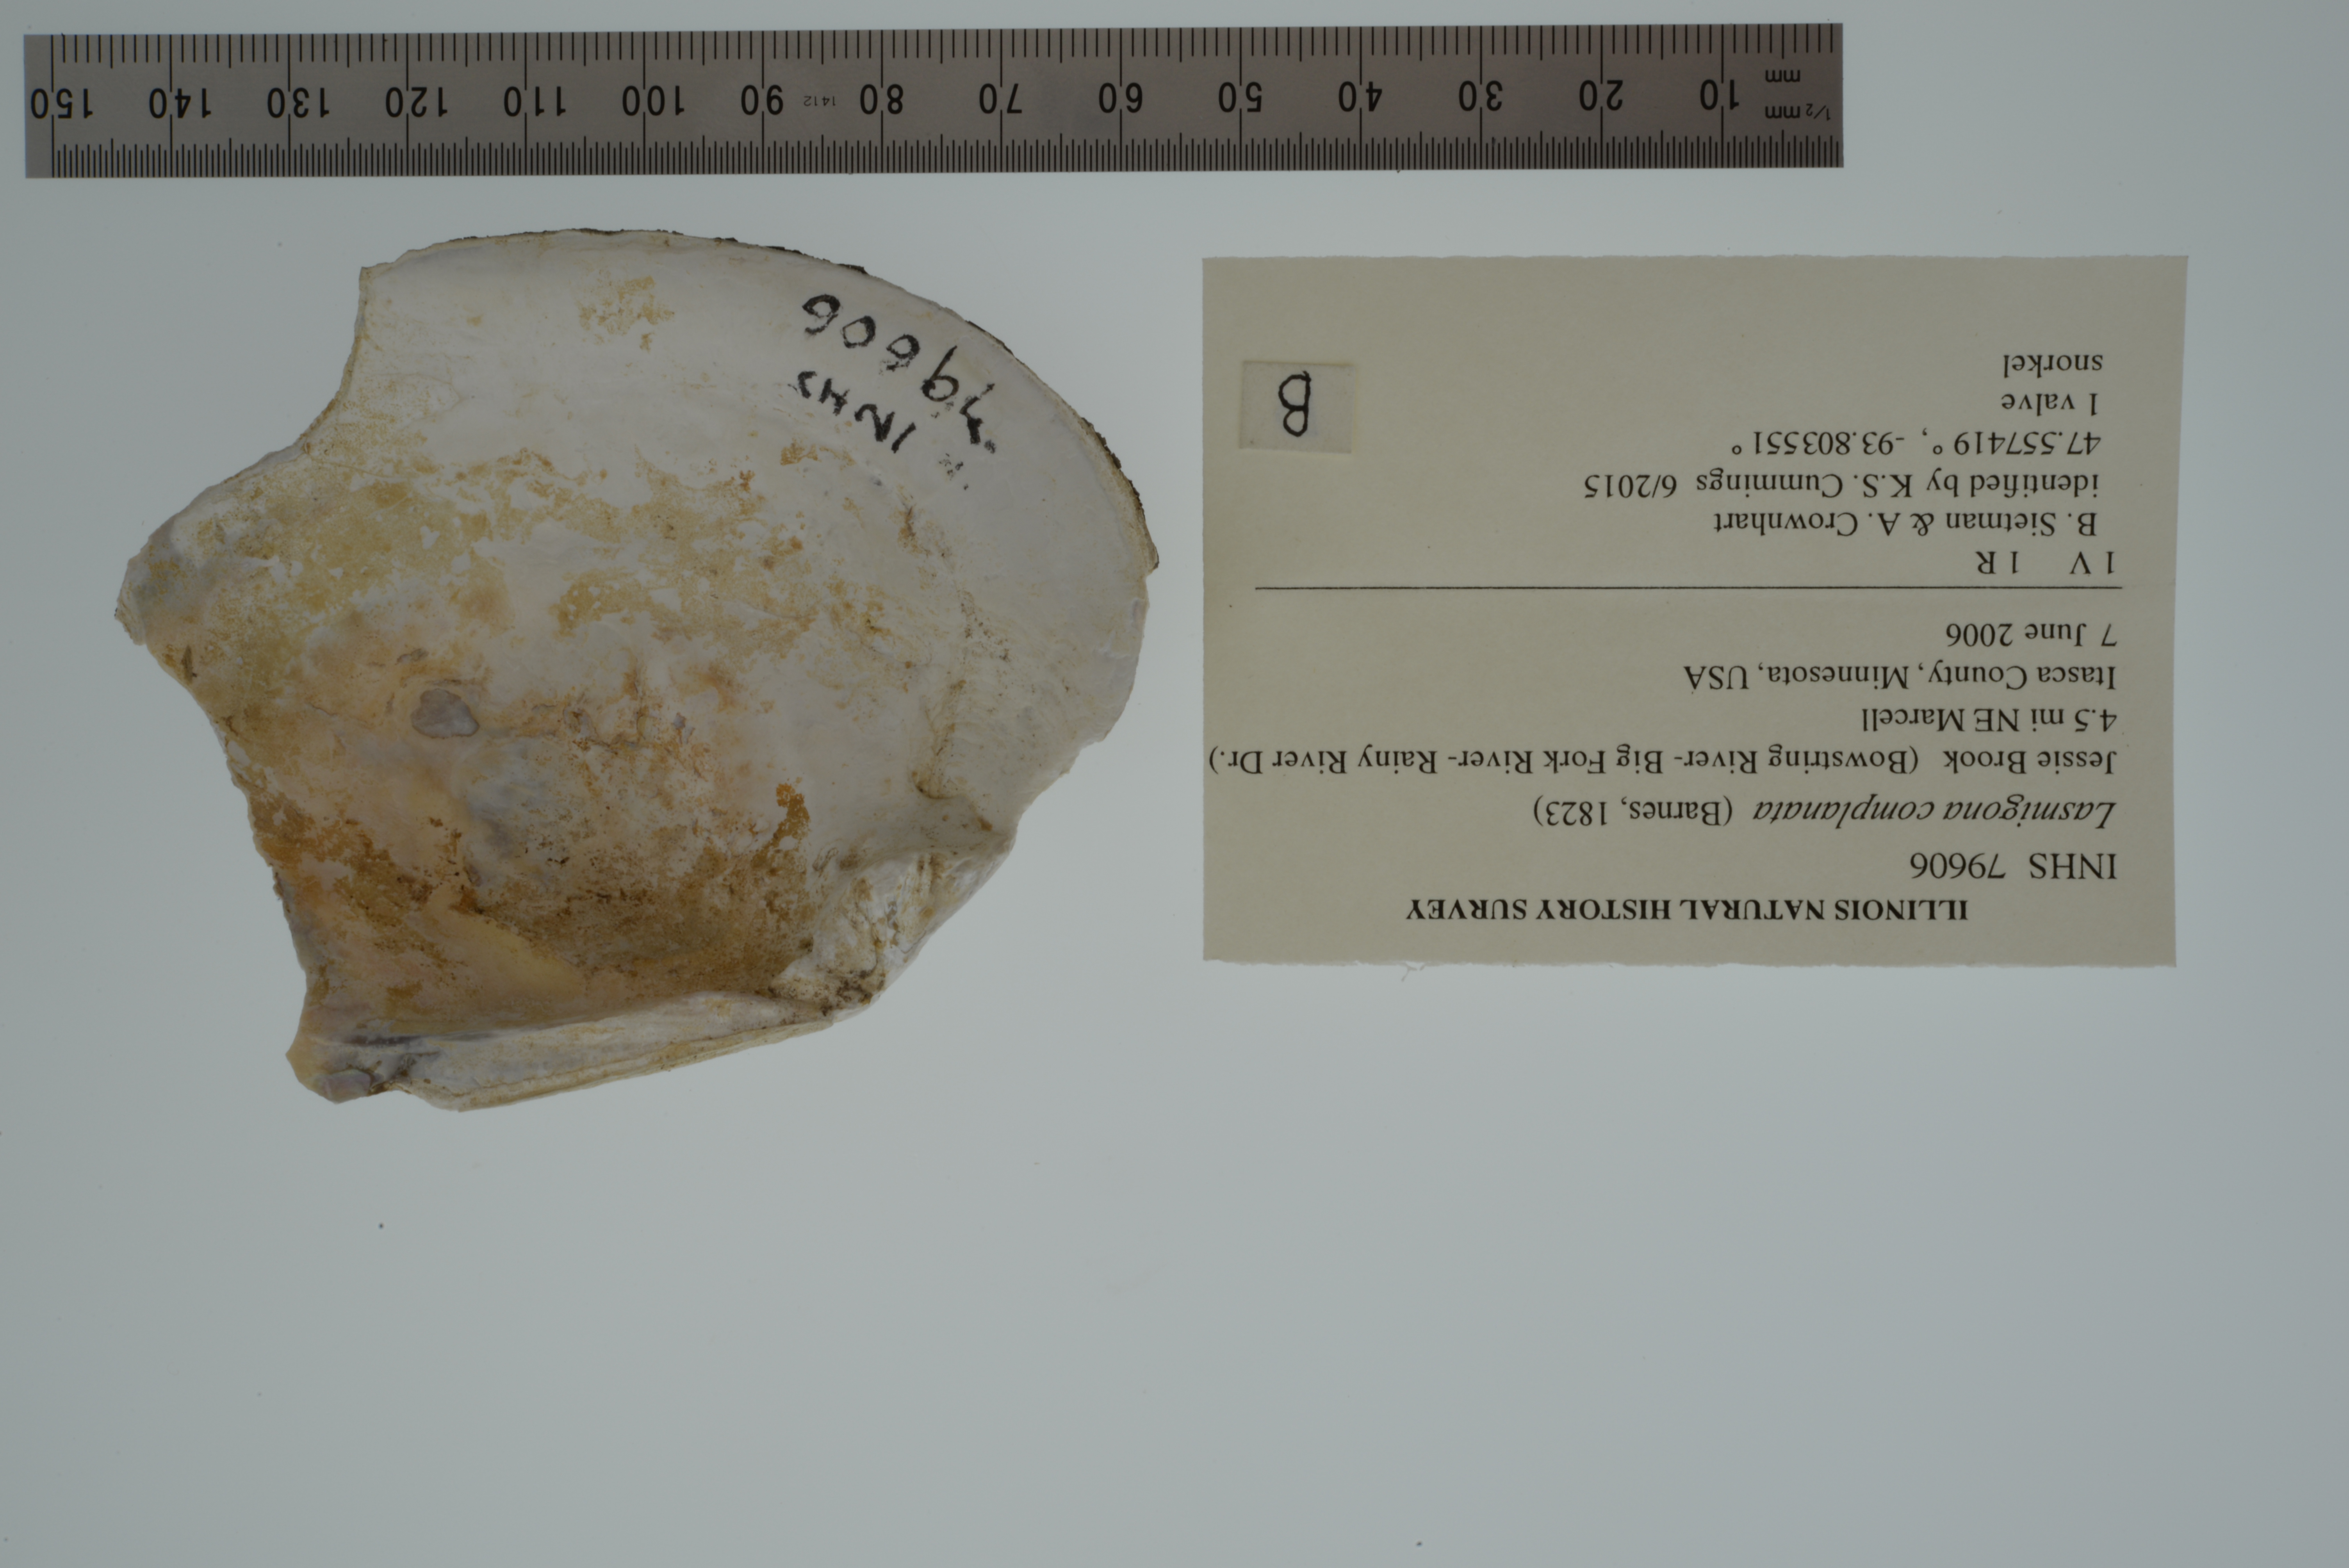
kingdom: Animalia
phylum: Mollusca
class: Bivalvia
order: Unionida
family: Unionidae
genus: Lasmigona
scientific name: Lasmigona complanata
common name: White heelsplitter
